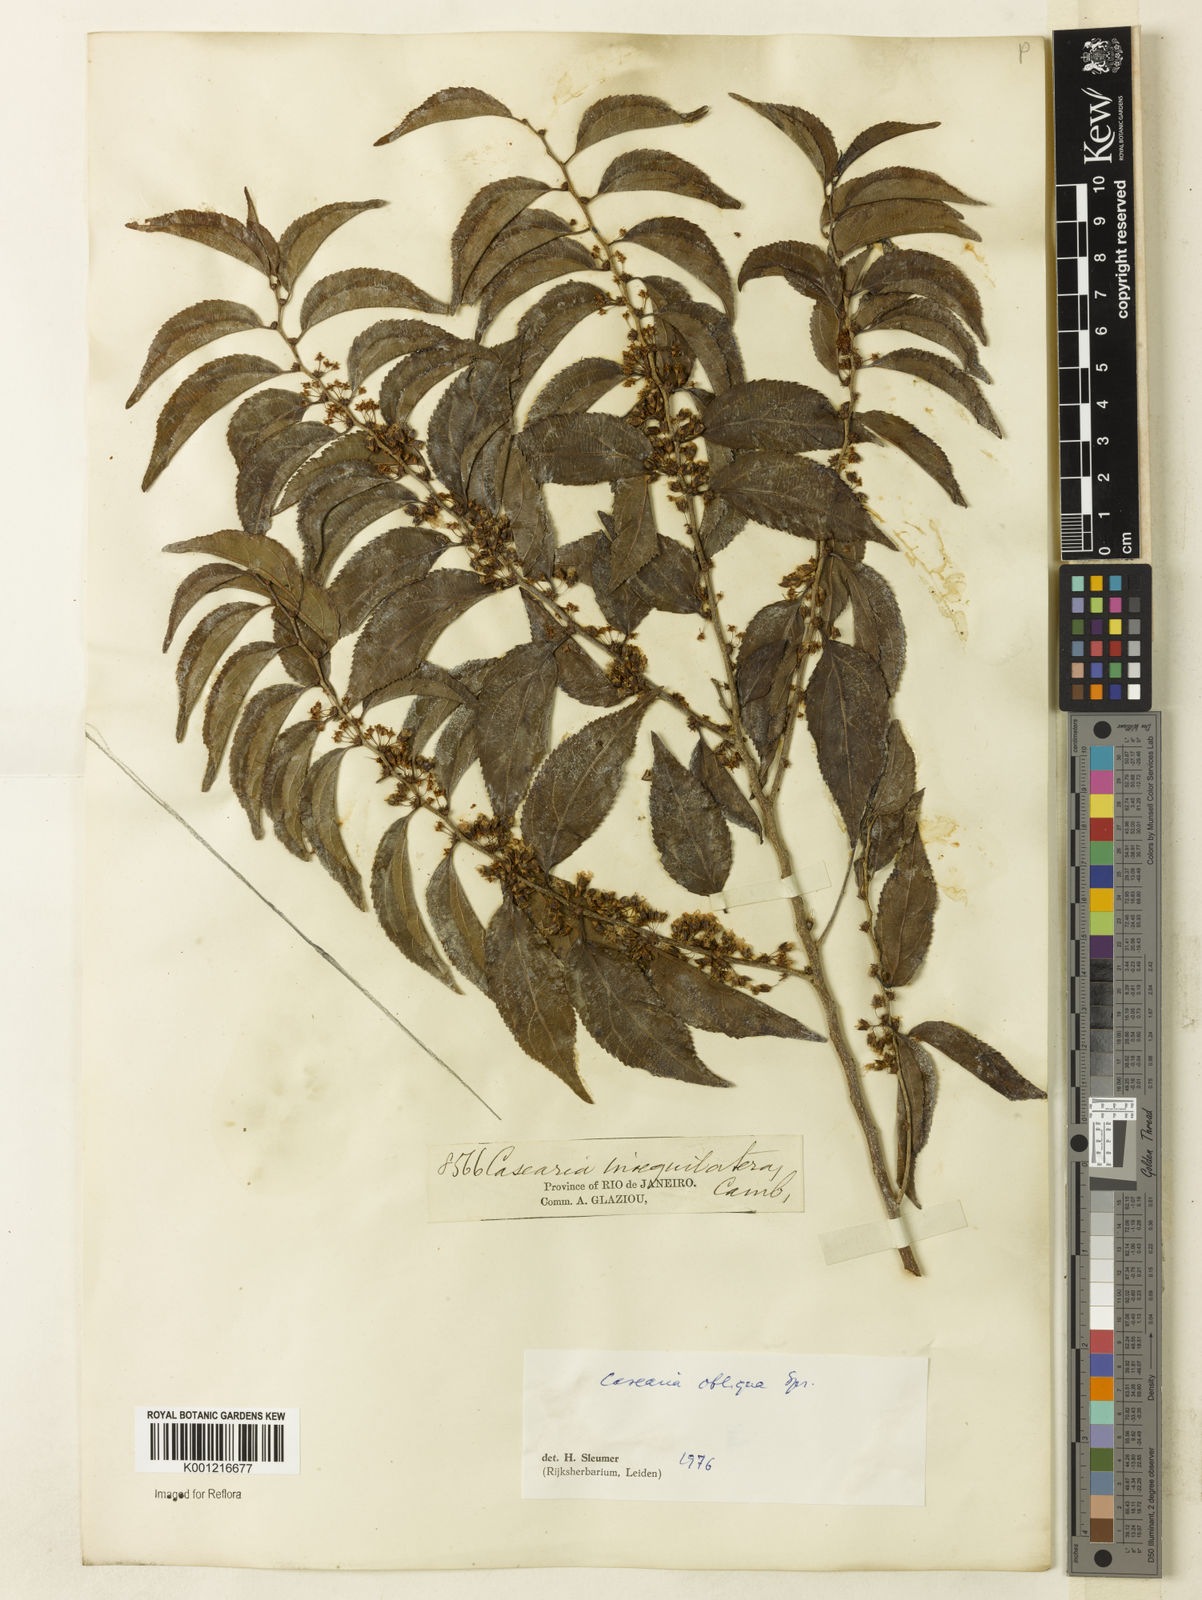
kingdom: Plantae
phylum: Tracheophyta
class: Magnoliopsida
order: Malpighiales
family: Salicaceae
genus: Casearia
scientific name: Casearia obliqua
